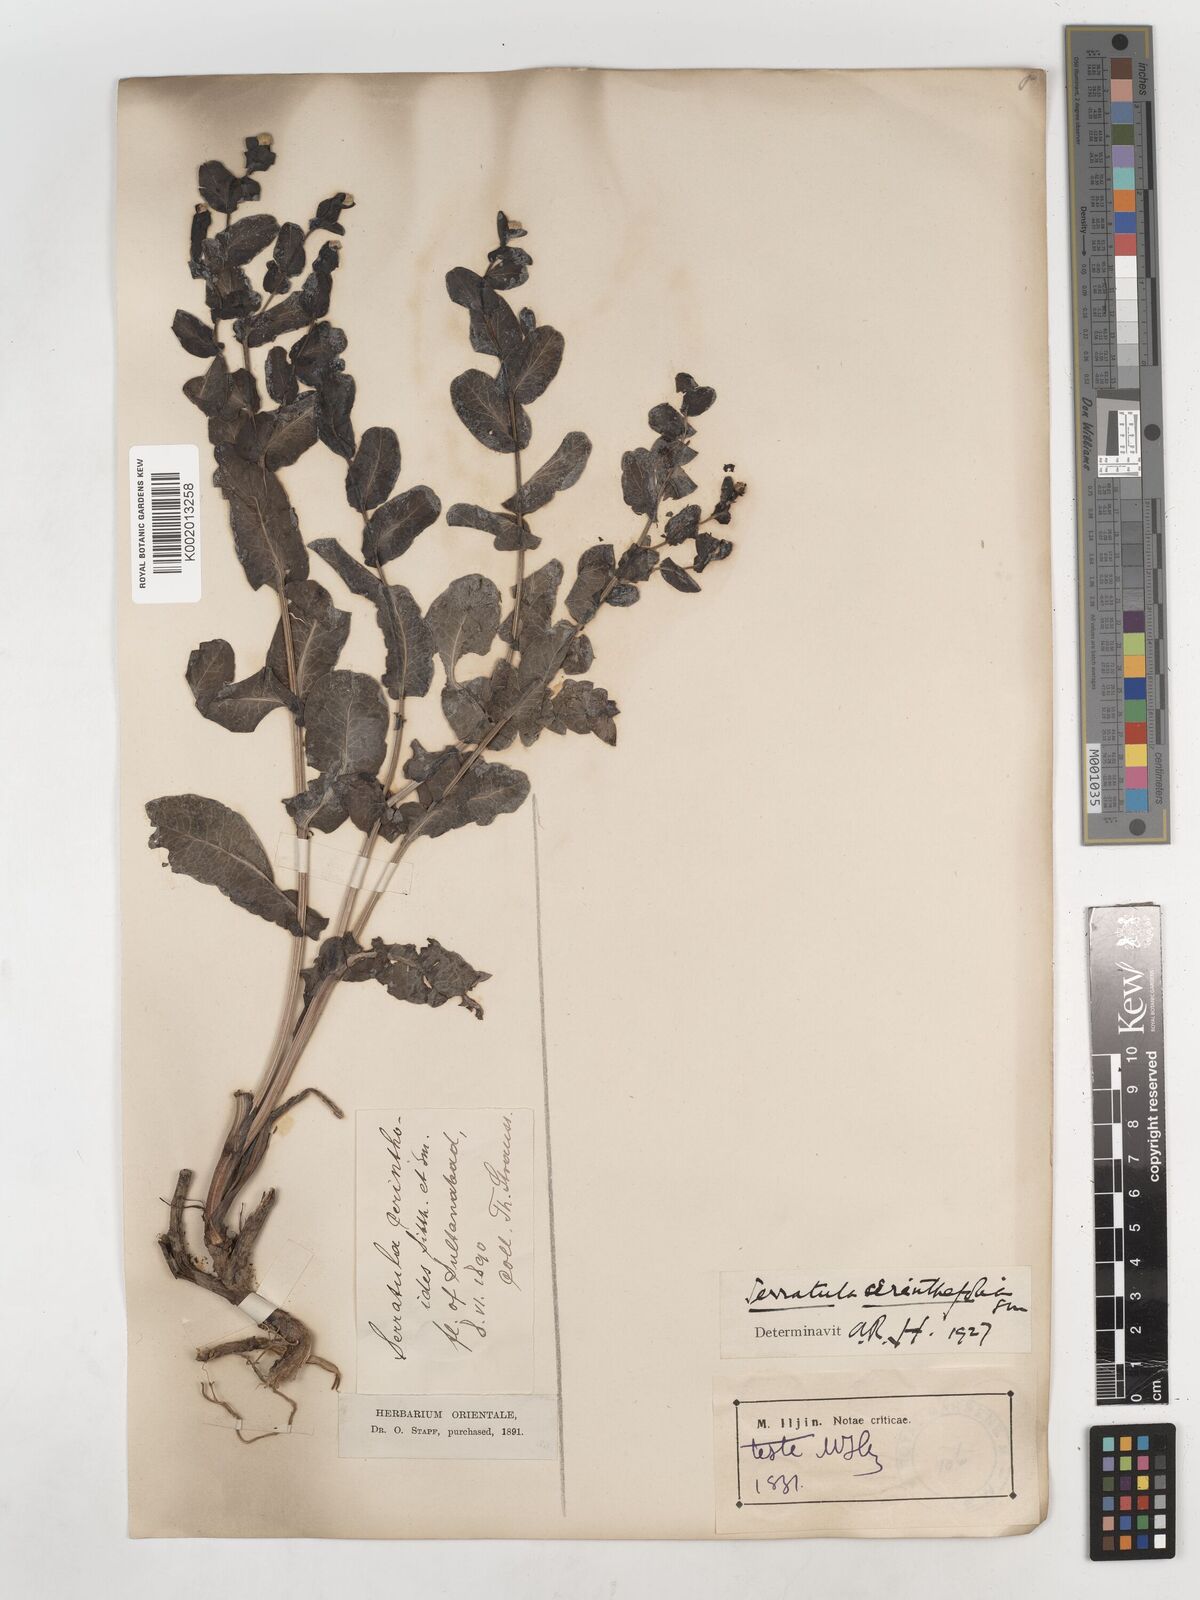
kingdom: Plantae
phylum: Tracheophyta
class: Magnoliopsida
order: Asterales
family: Asteraceae
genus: Klasea
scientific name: Klasea cerinthifolia
